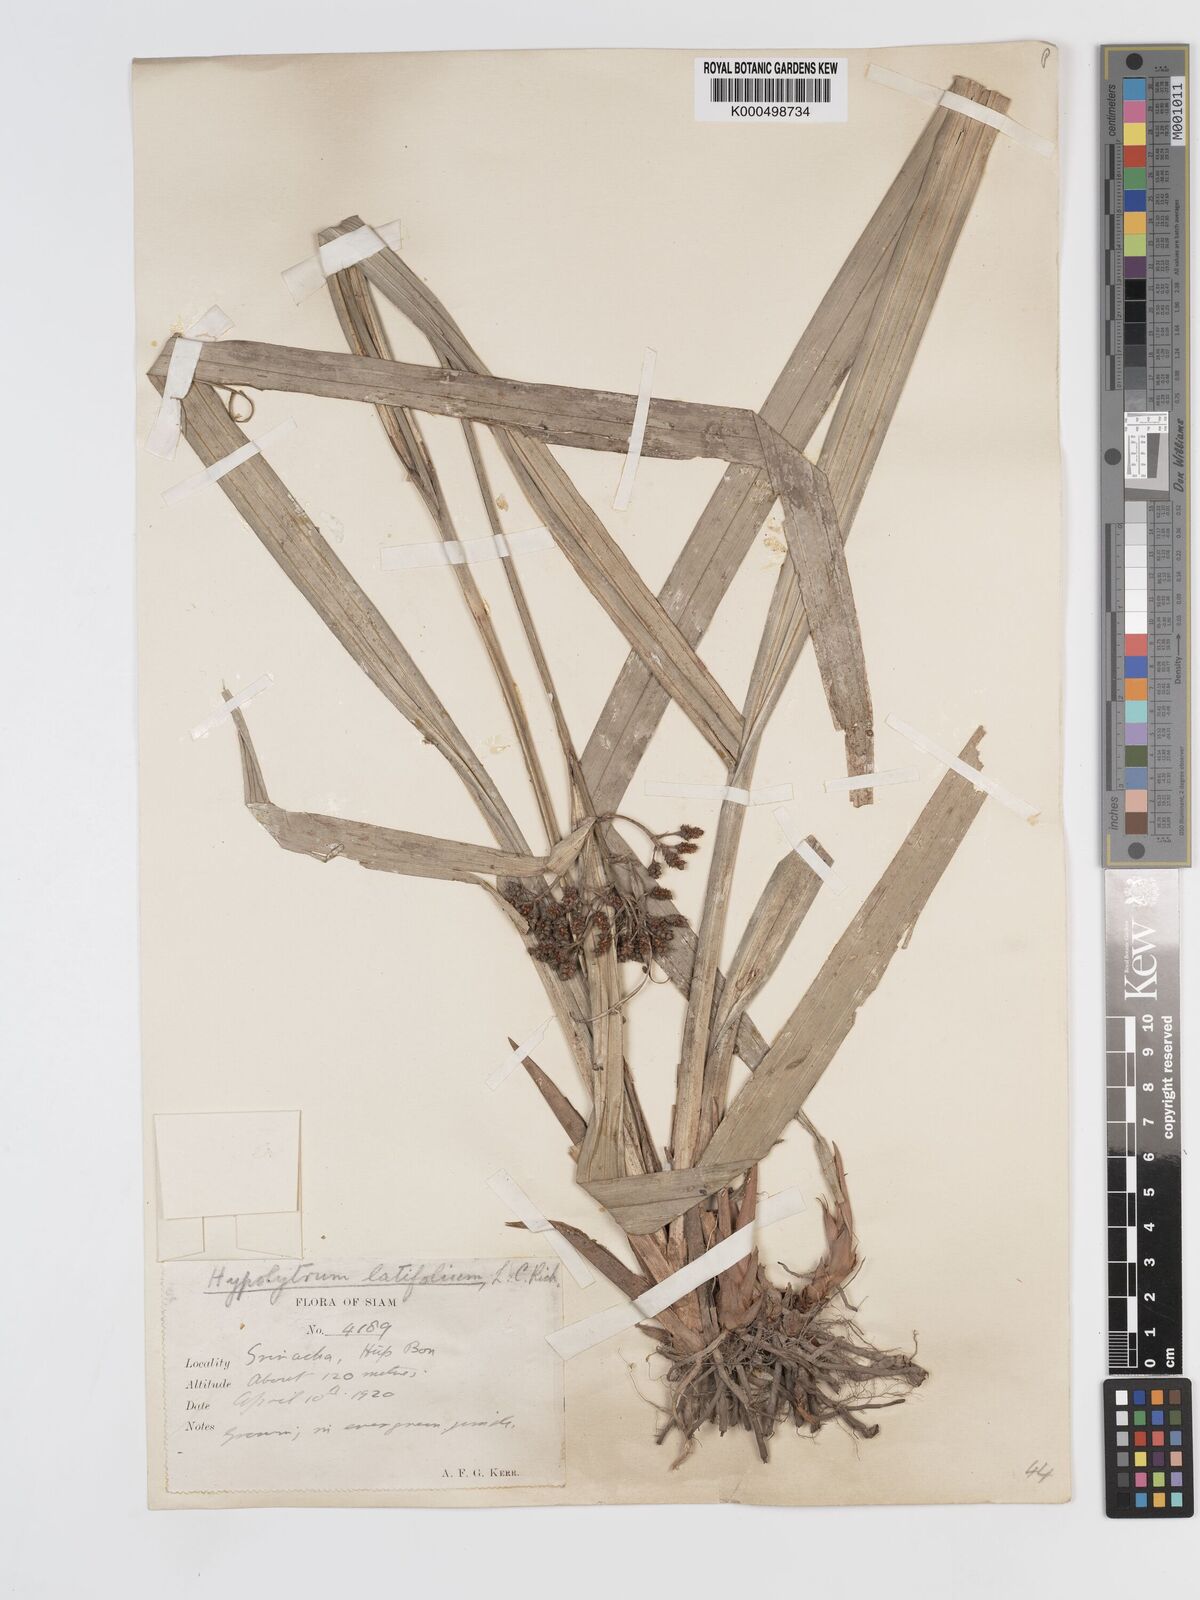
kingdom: Plantae
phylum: Tracheophyta
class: Liliopsida
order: Poales
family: Cyperaceae
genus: Hypolytrum
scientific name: Hypolytrum nemorum
